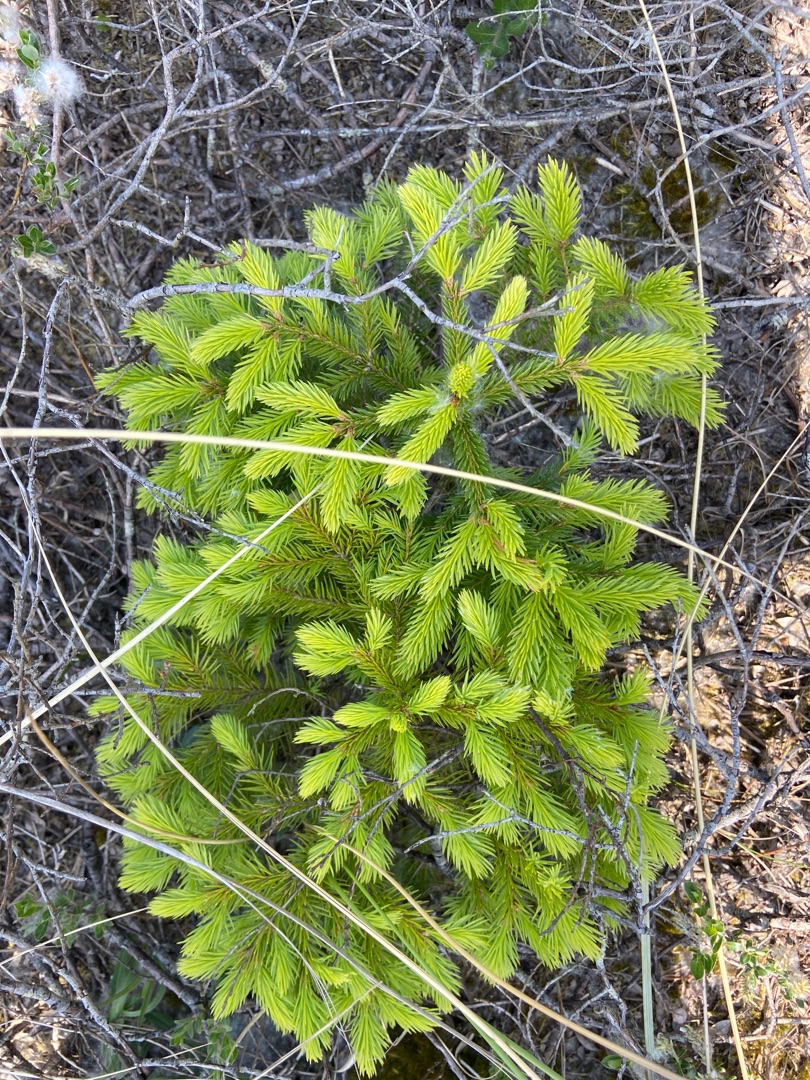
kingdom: Plantae
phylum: Tracheophyta
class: Pinopsida
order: Pinales
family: Pinaceae
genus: Picea
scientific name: Picea abies
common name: Rød-gran
